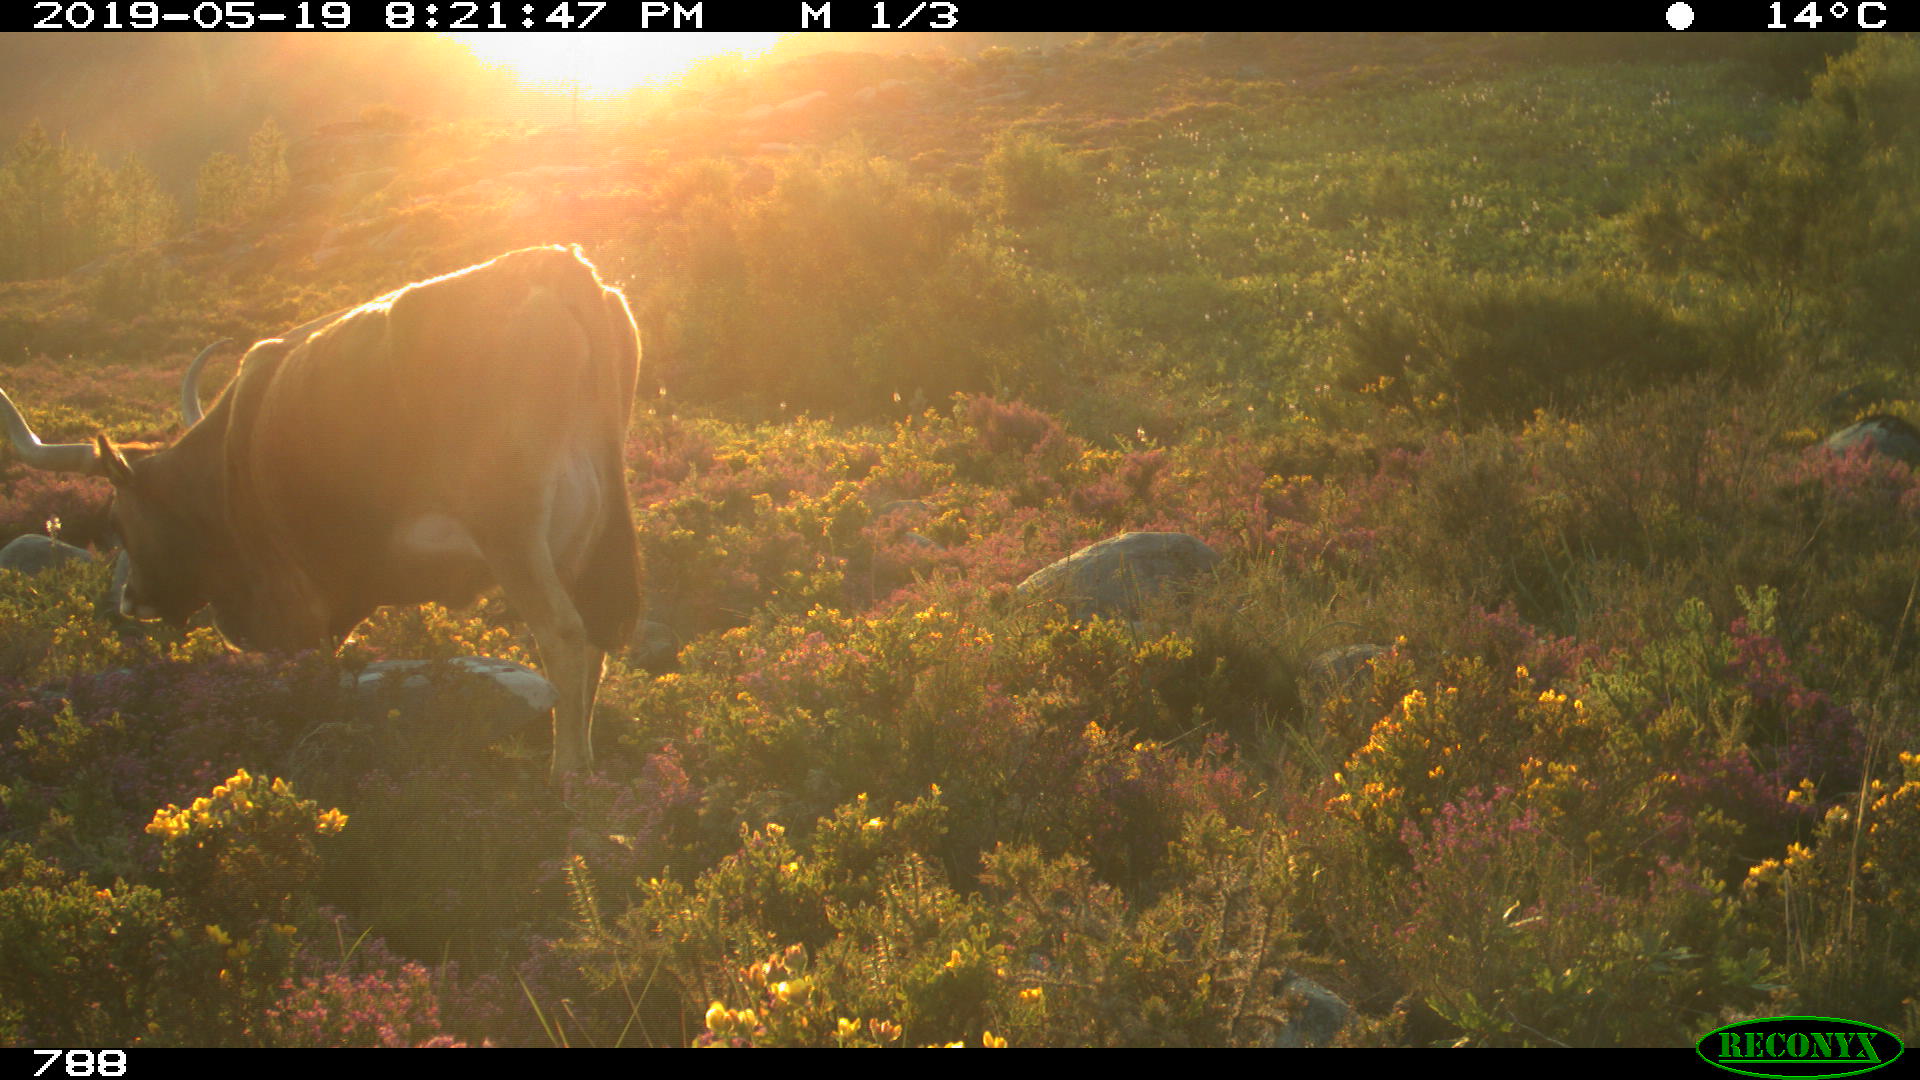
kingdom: Animalia
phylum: Chordata
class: Mammalia
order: Artiodactyla
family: Bovidae
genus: Bos
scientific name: Bos taurus
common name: Domesticated cattle
